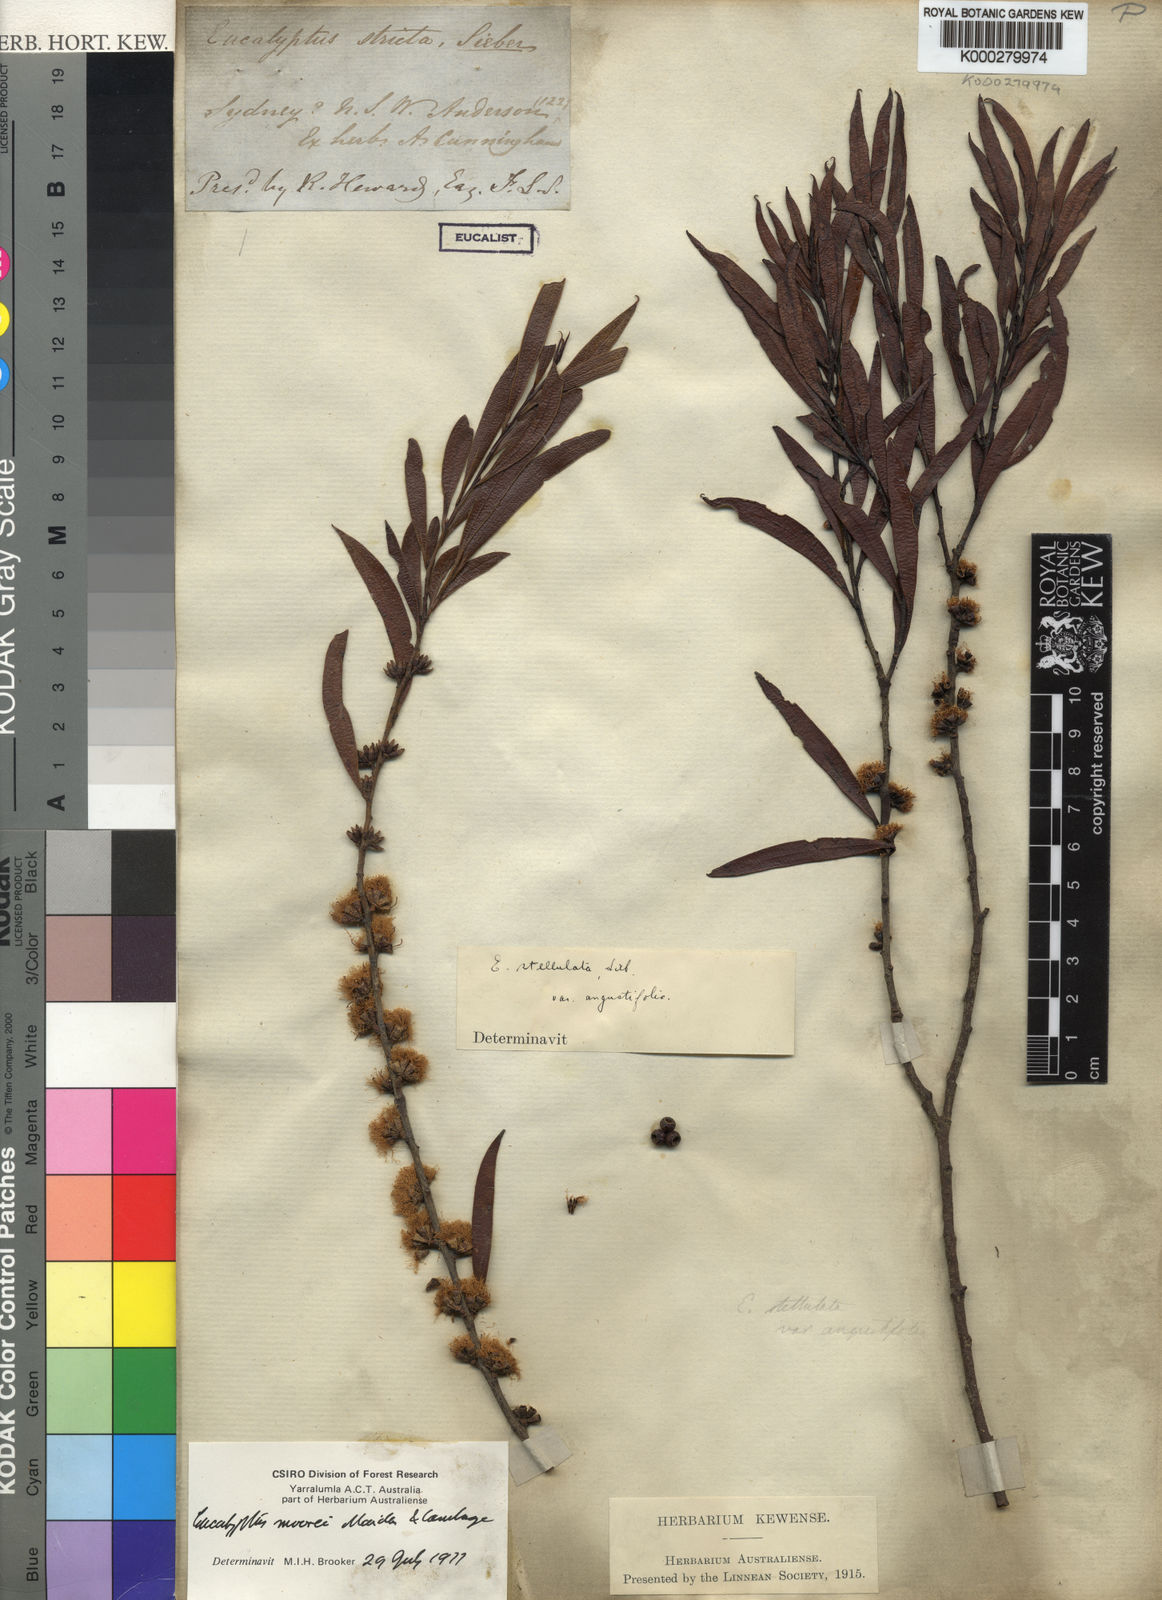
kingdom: Plantae
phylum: Tracheophyta
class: Magnoliopsida
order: Myrtales
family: Myrtaceae
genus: Eucalyptus
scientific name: Eucalyptus moorei
